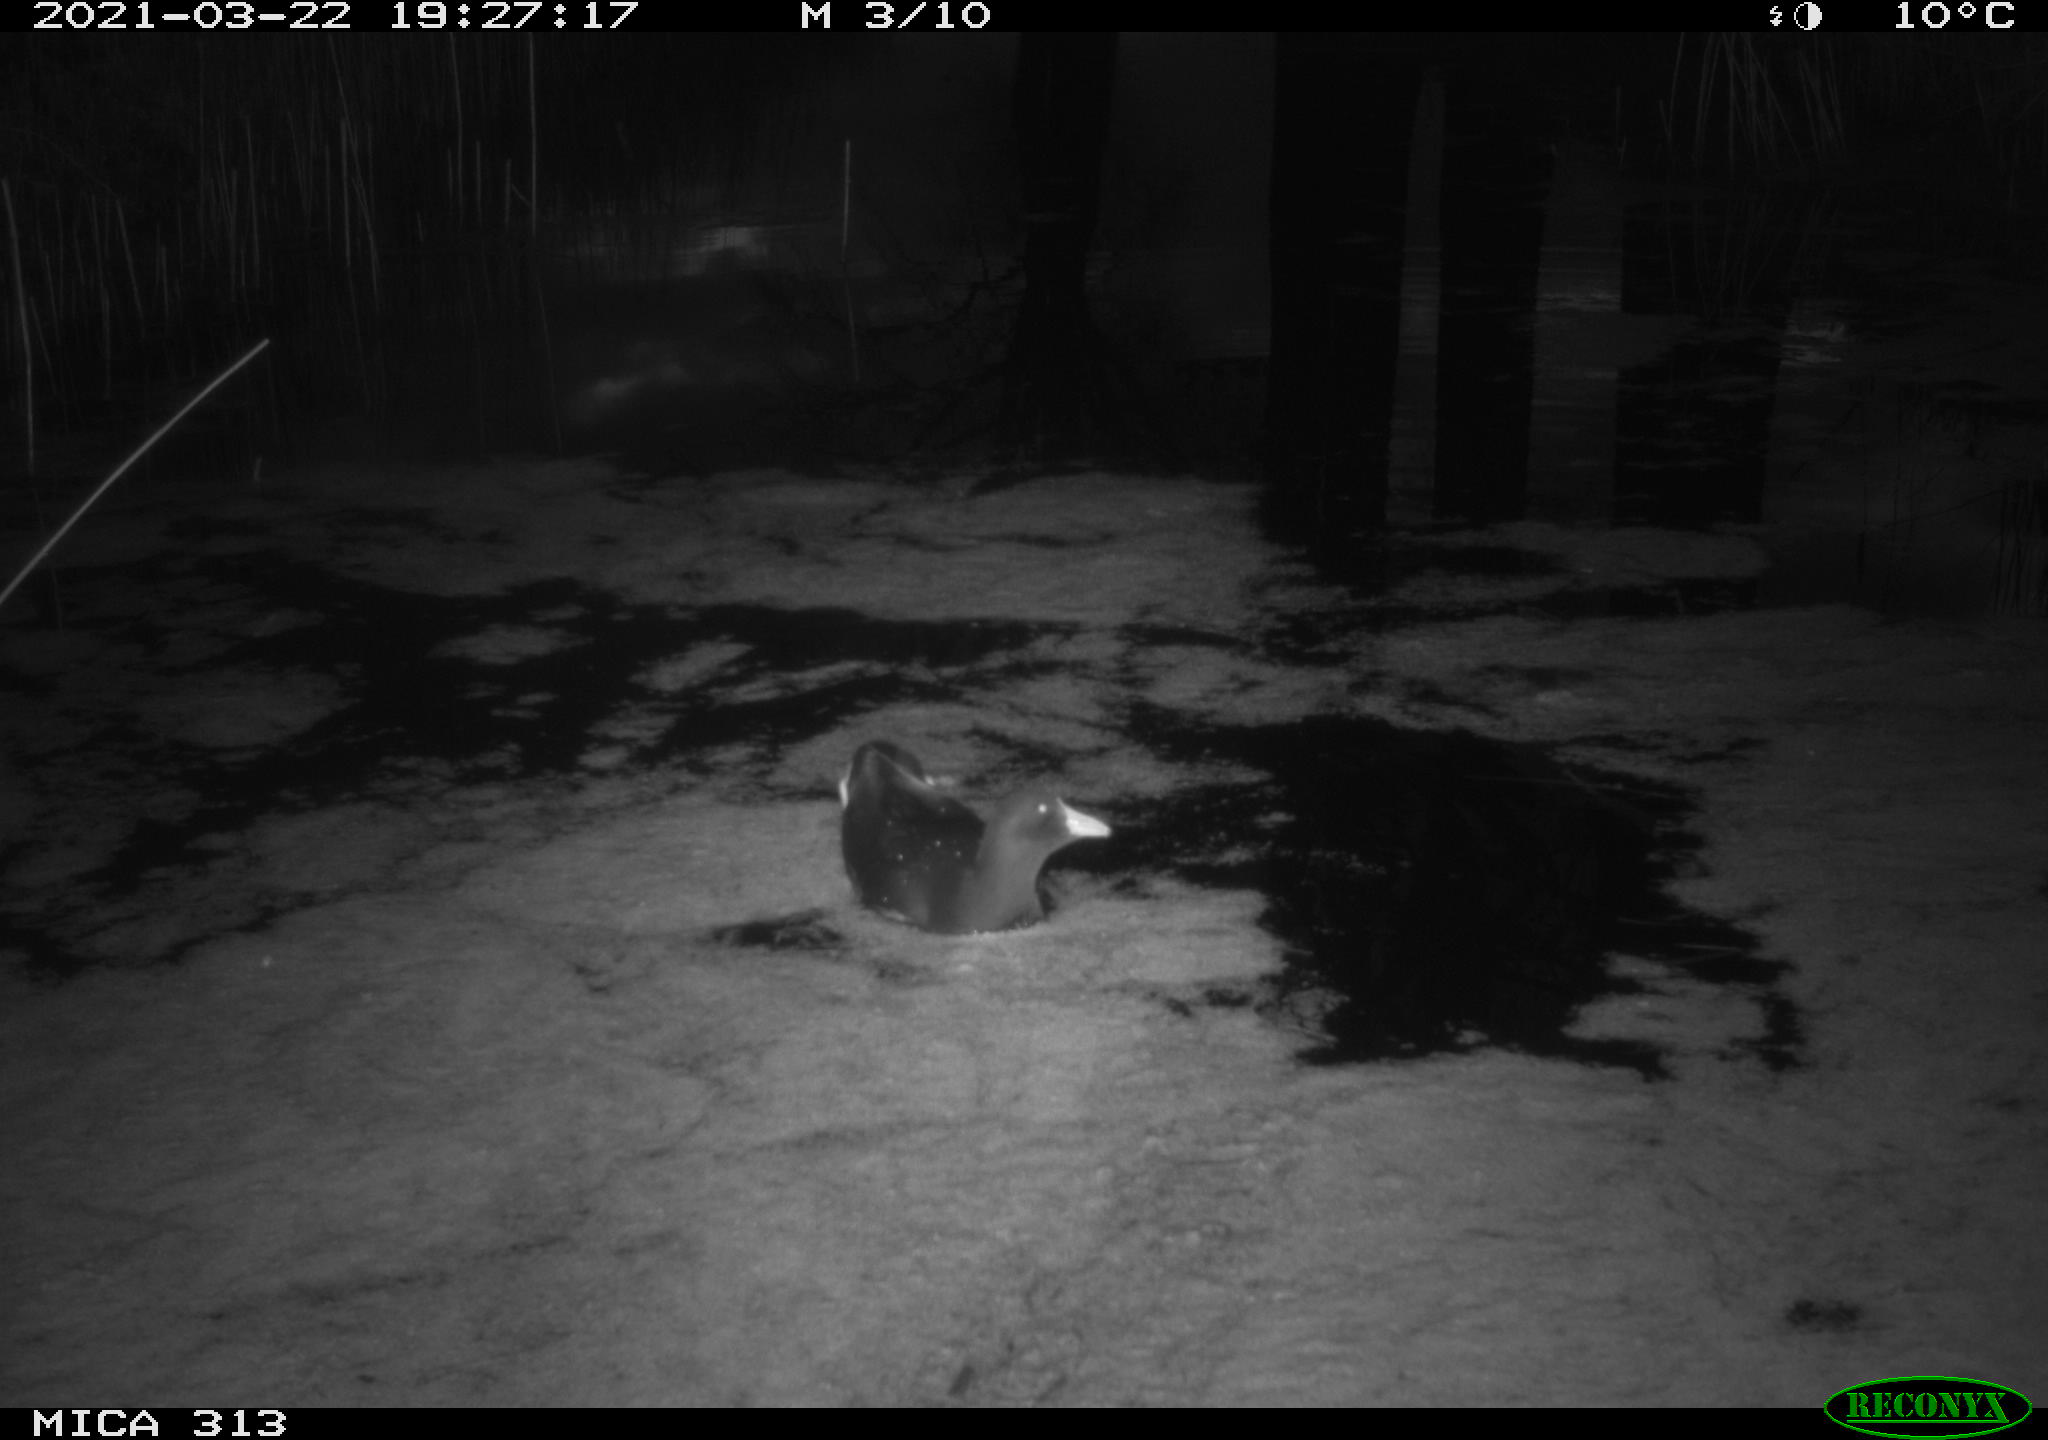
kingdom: Animalia
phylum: Chordata
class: Aves
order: Gruiformes
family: Rallidae
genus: Gallinula
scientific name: Gallinula chloropus
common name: Common moorhen
